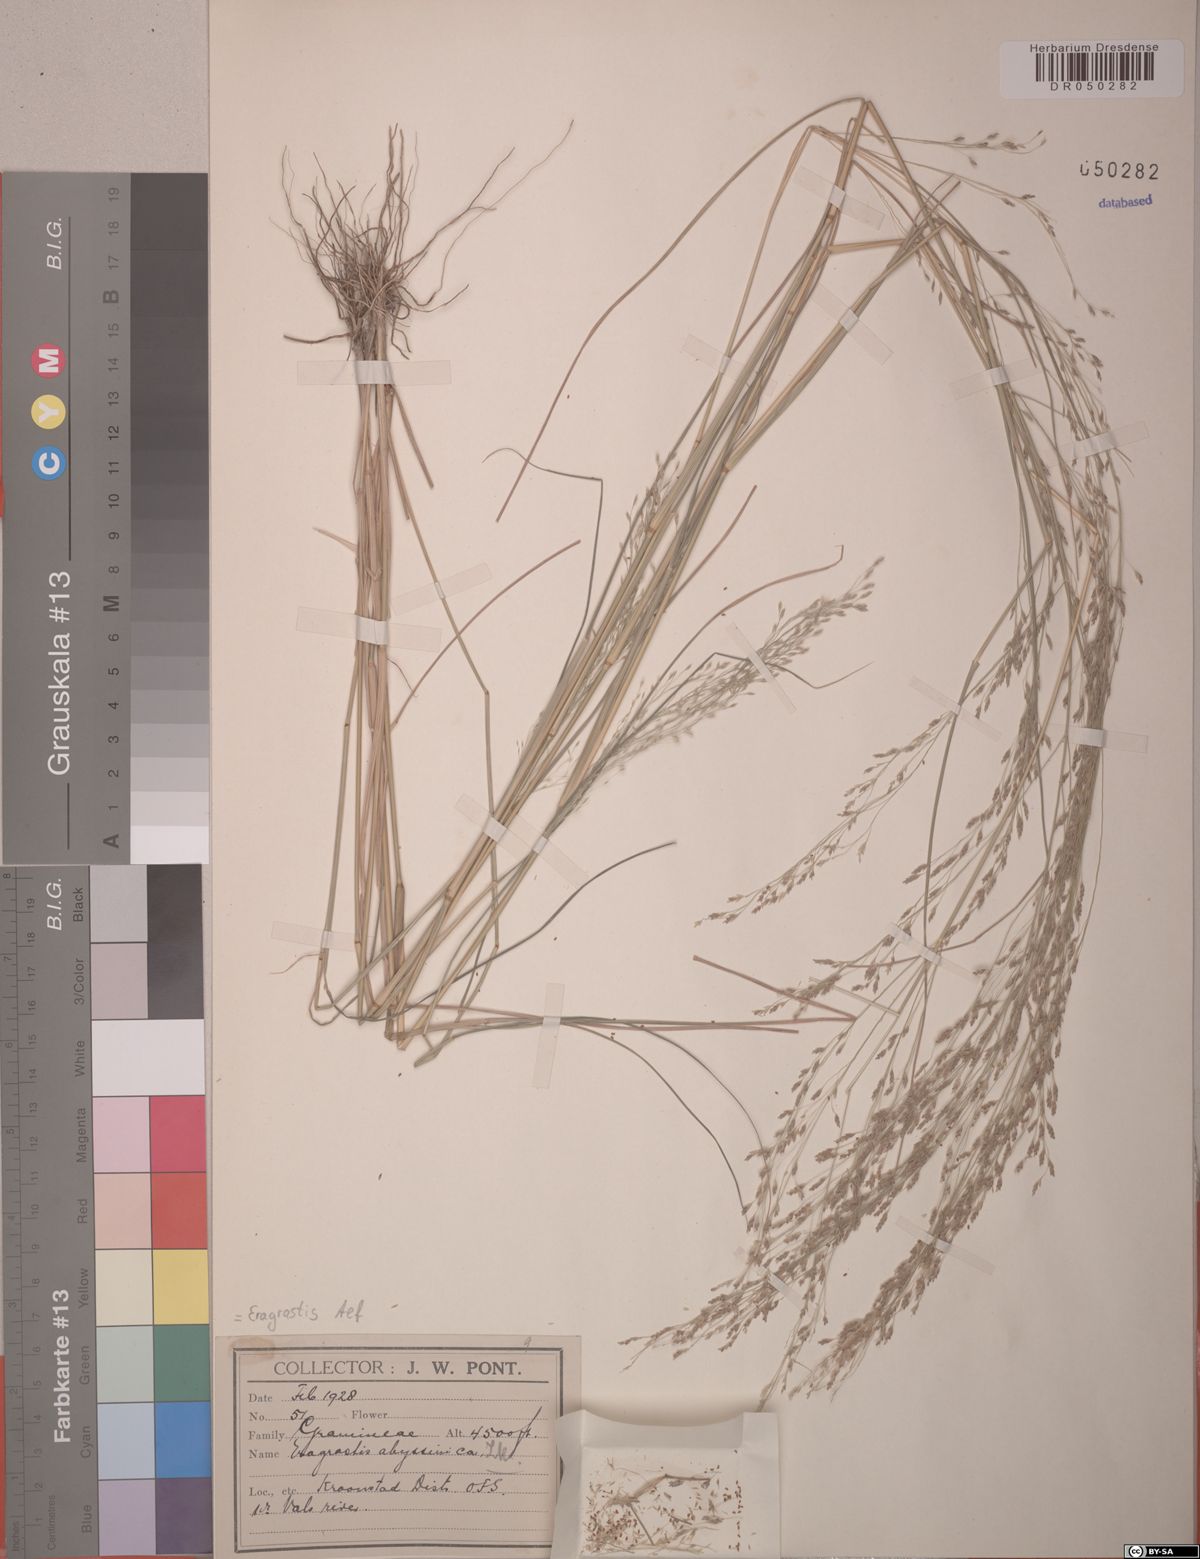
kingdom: Plantae
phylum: Tracheophyta
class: Liliopsida
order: Poales
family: Poaceae
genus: Eragrostis
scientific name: Eragrostis tef
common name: Teff
